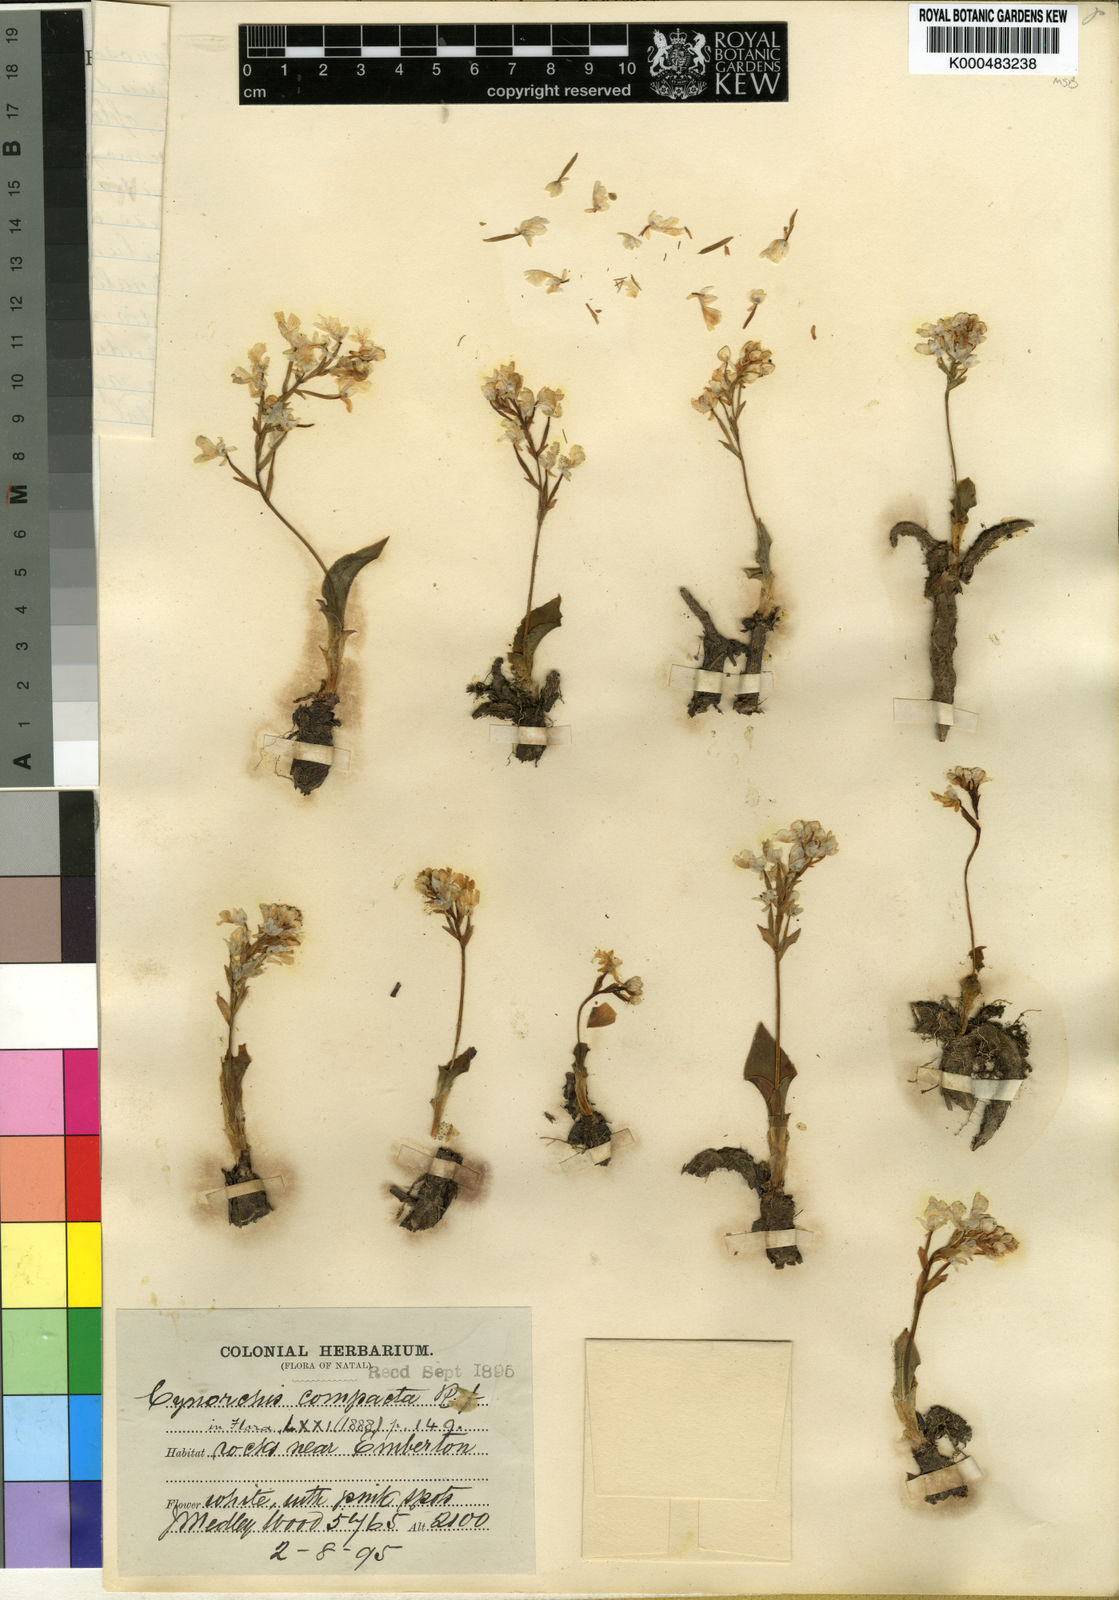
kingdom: Plantae
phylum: Tracheophyta
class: Liliopsida
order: Asparagales
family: Orchidaceae
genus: Cynorkis
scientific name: Cynorkis compacta
